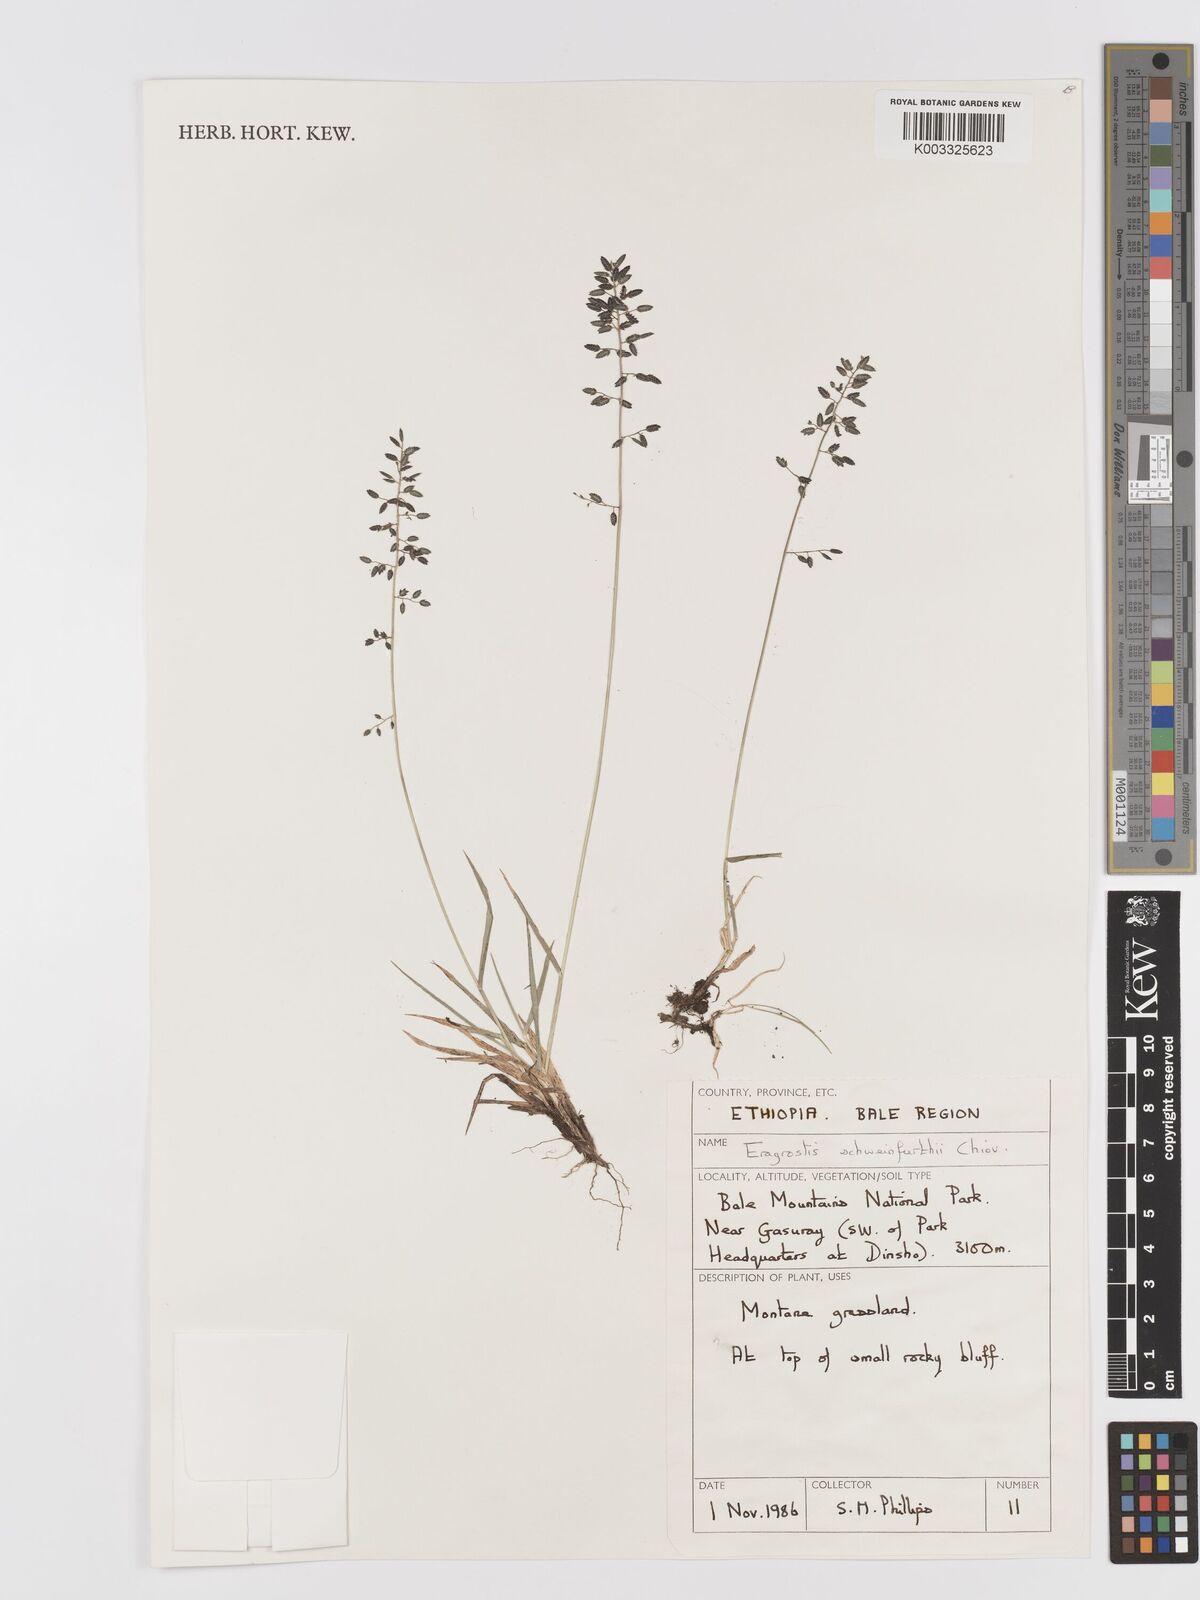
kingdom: Plantae
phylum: Tracheophyta
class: Liliopsida
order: Poales
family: Poaceae
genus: Eragrostis
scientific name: Eragrostis schweinfurthii
